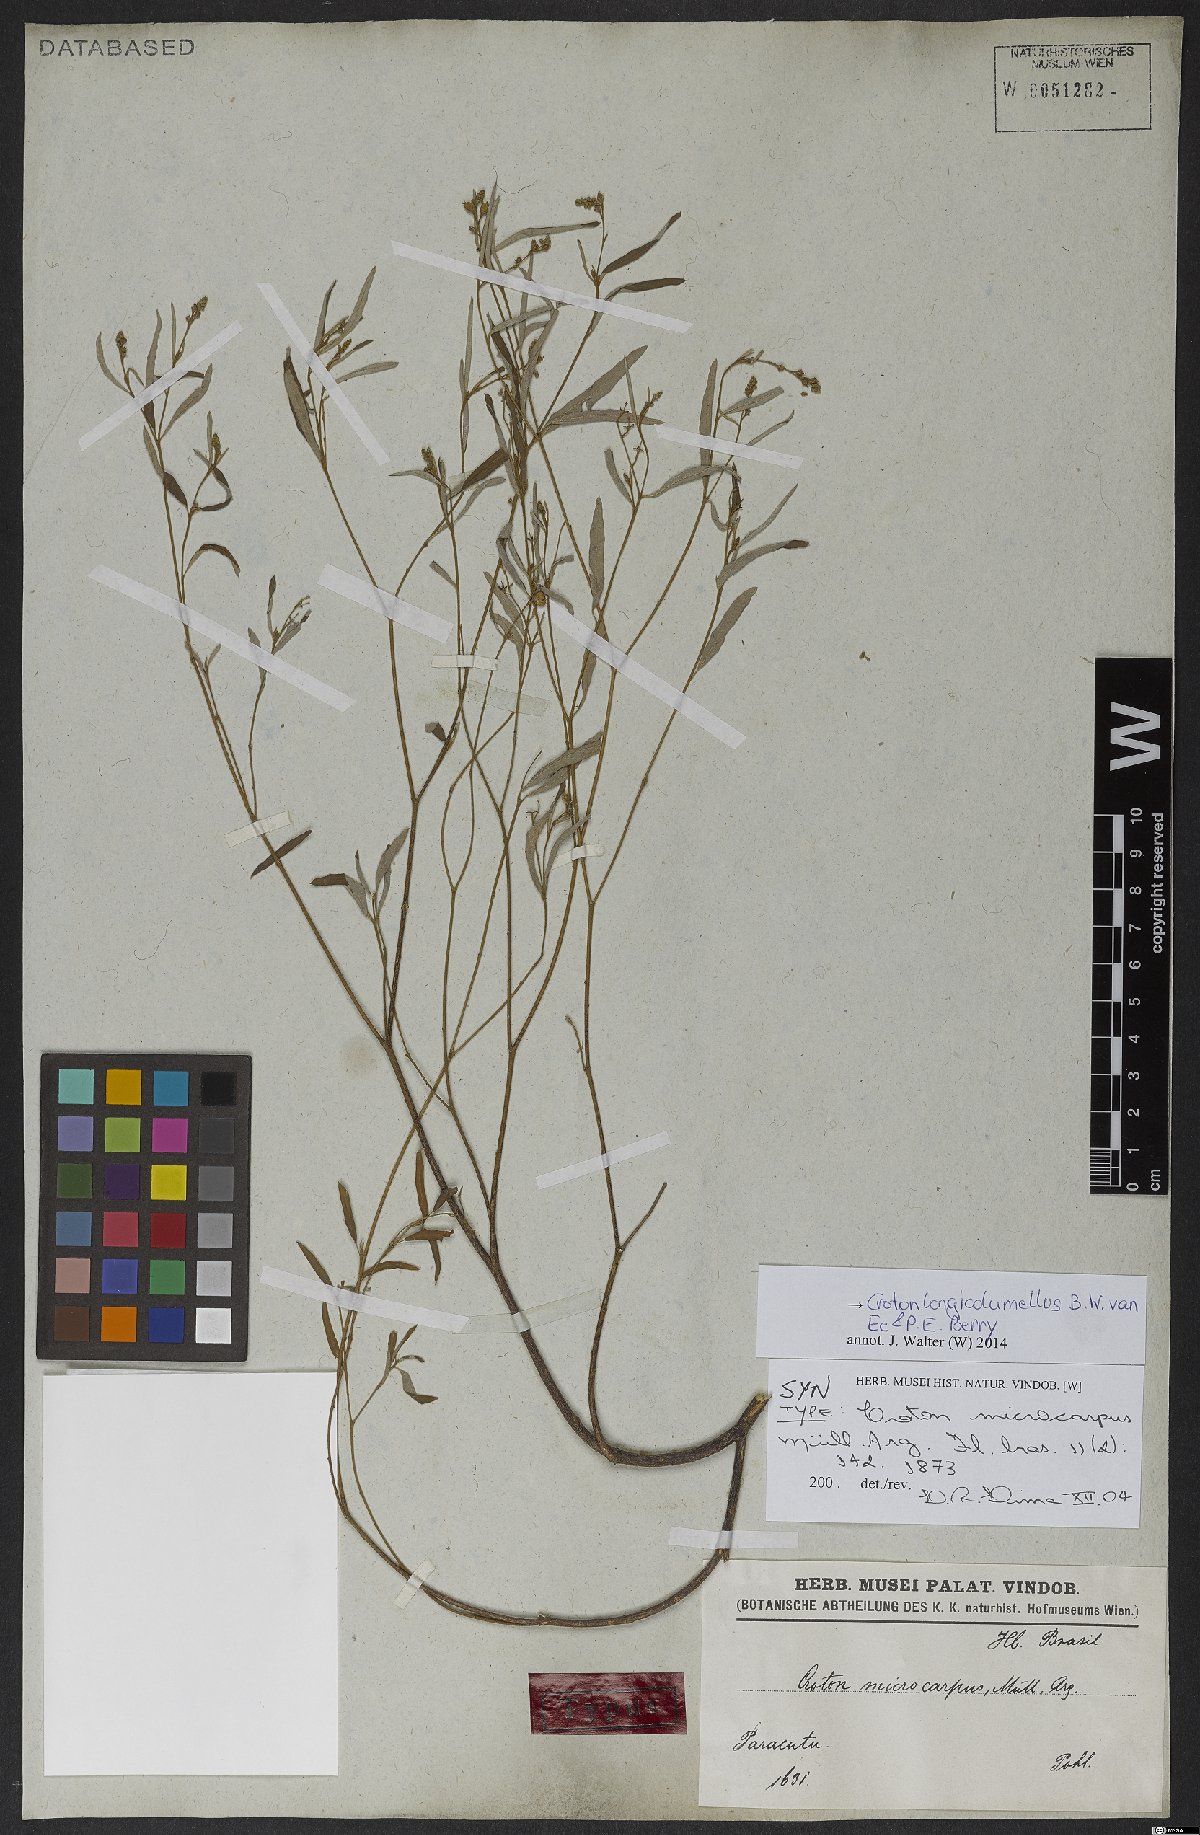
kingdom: Plantae
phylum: Tracheophyta
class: Magnoliopsida
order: Malpighiales
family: Euphorbiaceae
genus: Croton
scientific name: Croton longicolumellus
